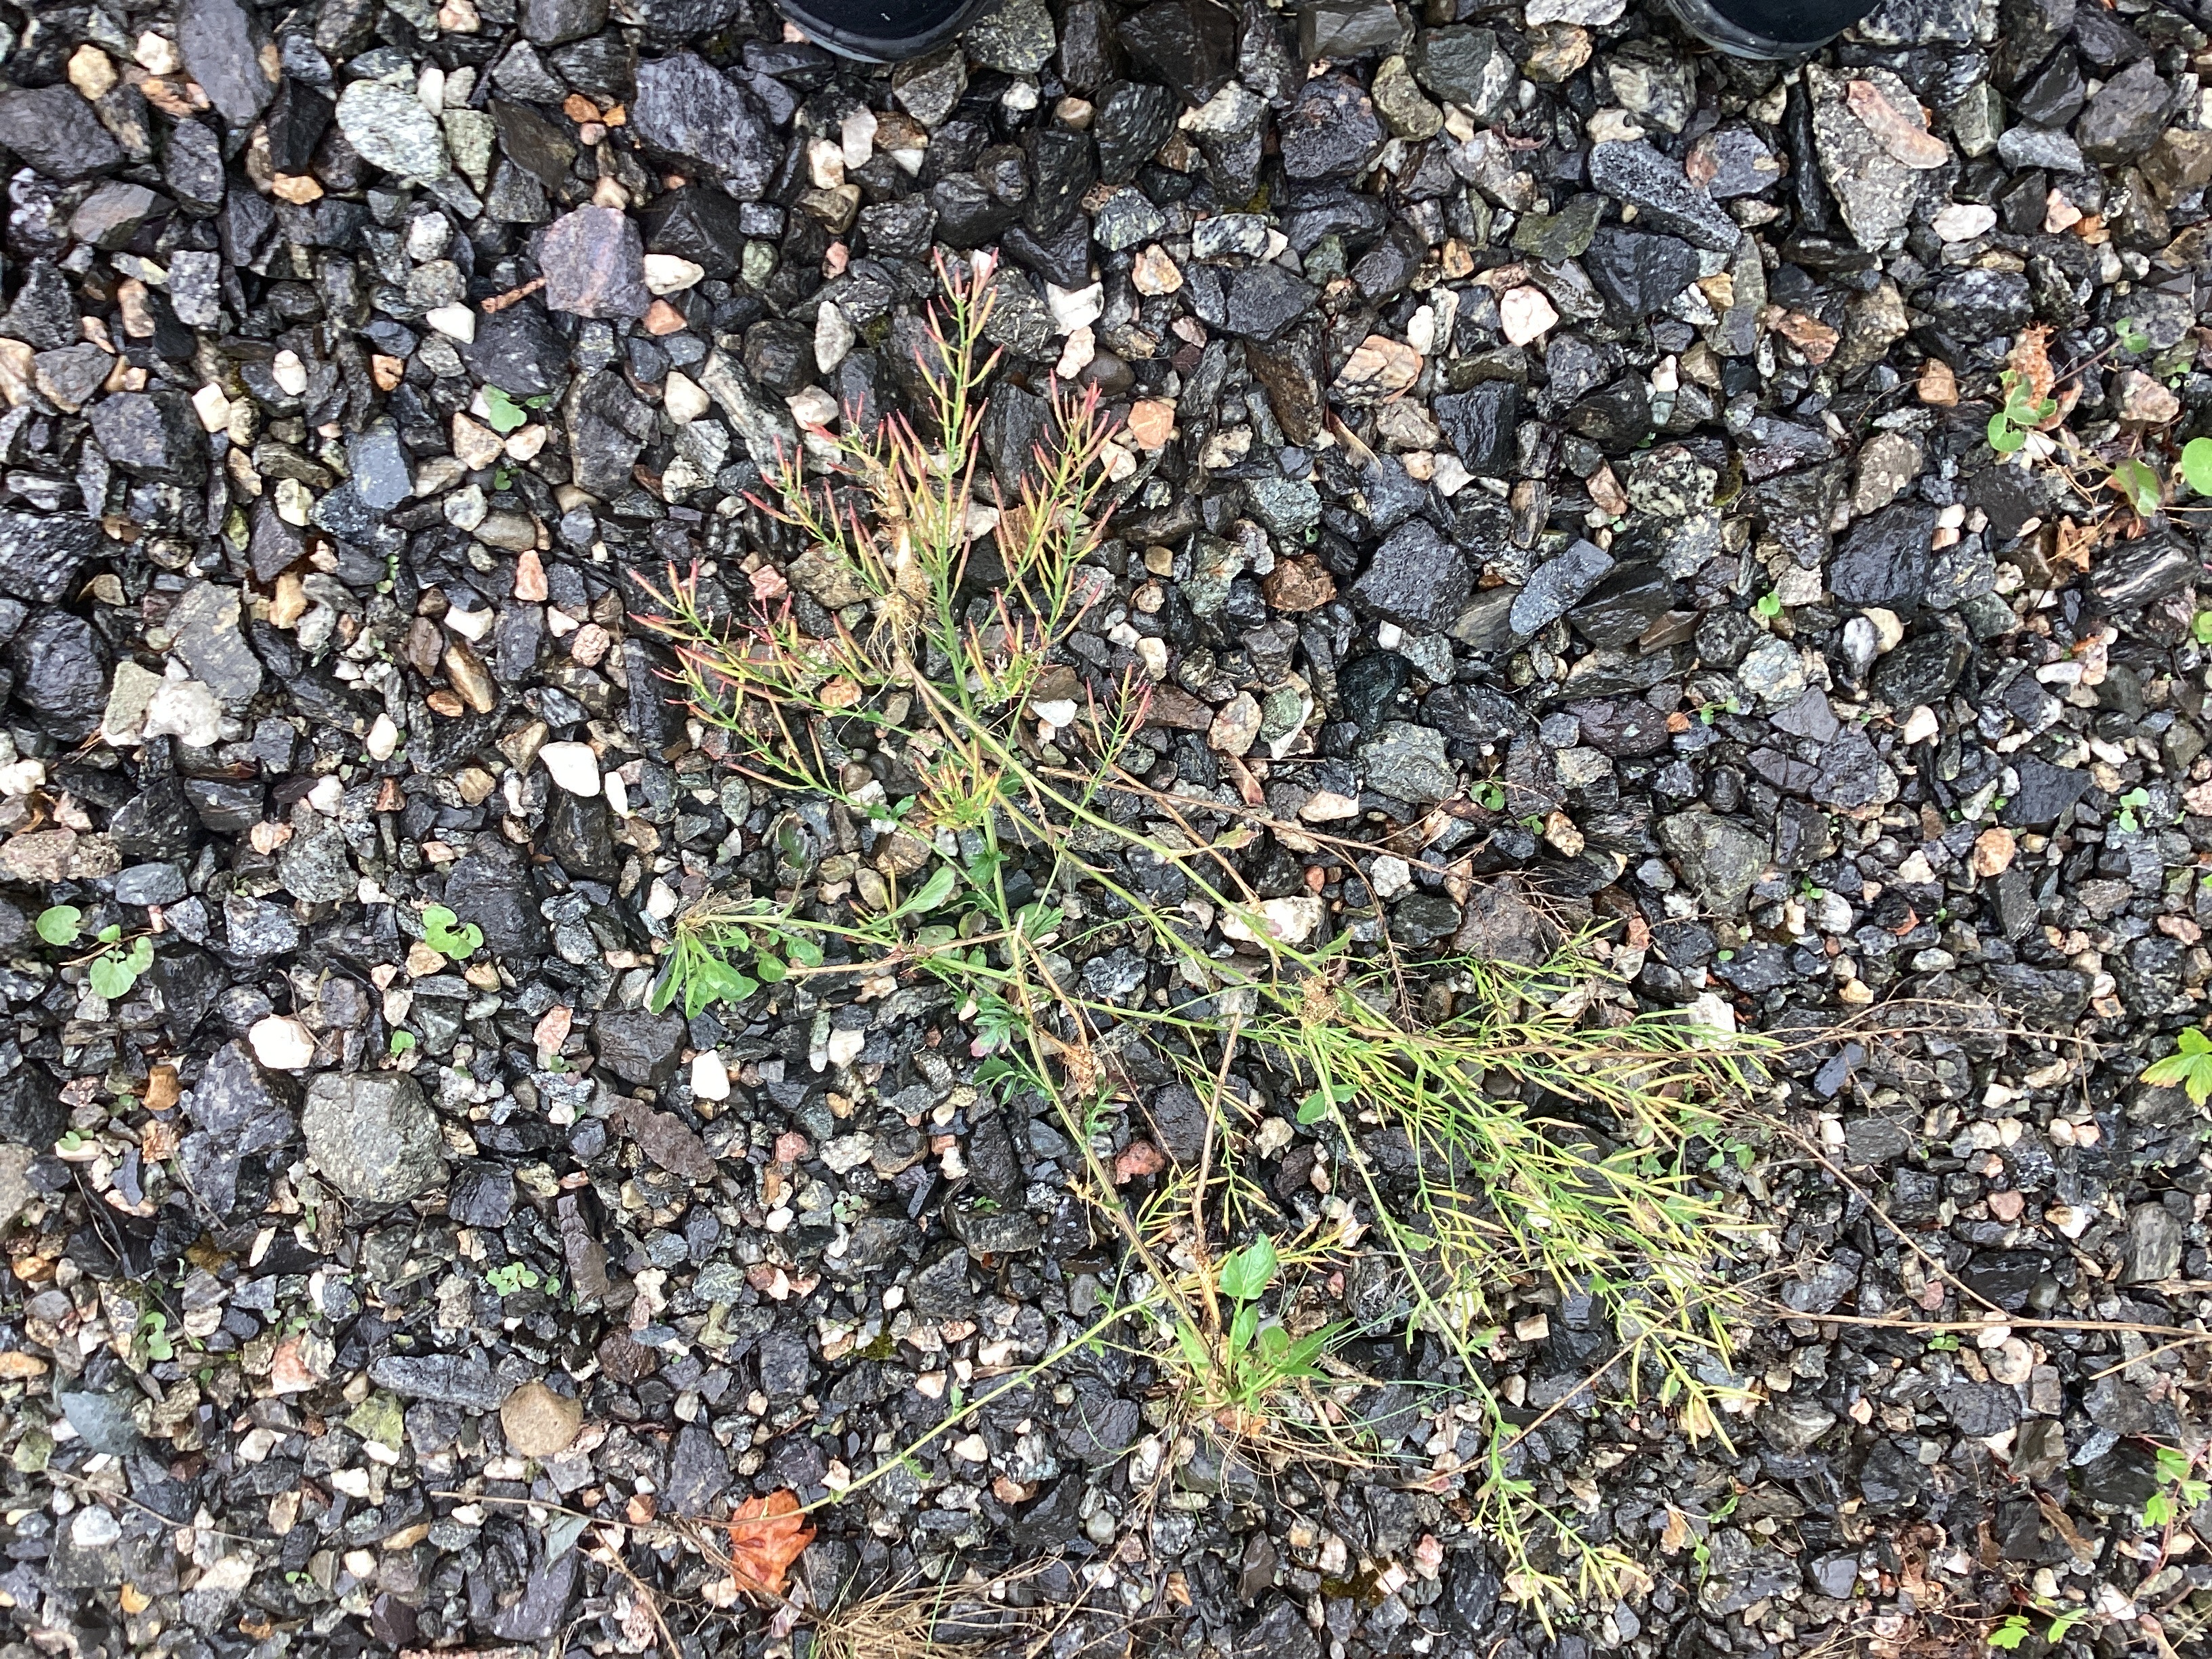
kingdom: Plantae
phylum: Tracheophyta
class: Magnoliopsida
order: Brassicales
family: Brassicaceae
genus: Barbarea
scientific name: Barbarea vulgaris
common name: vinterkarse
